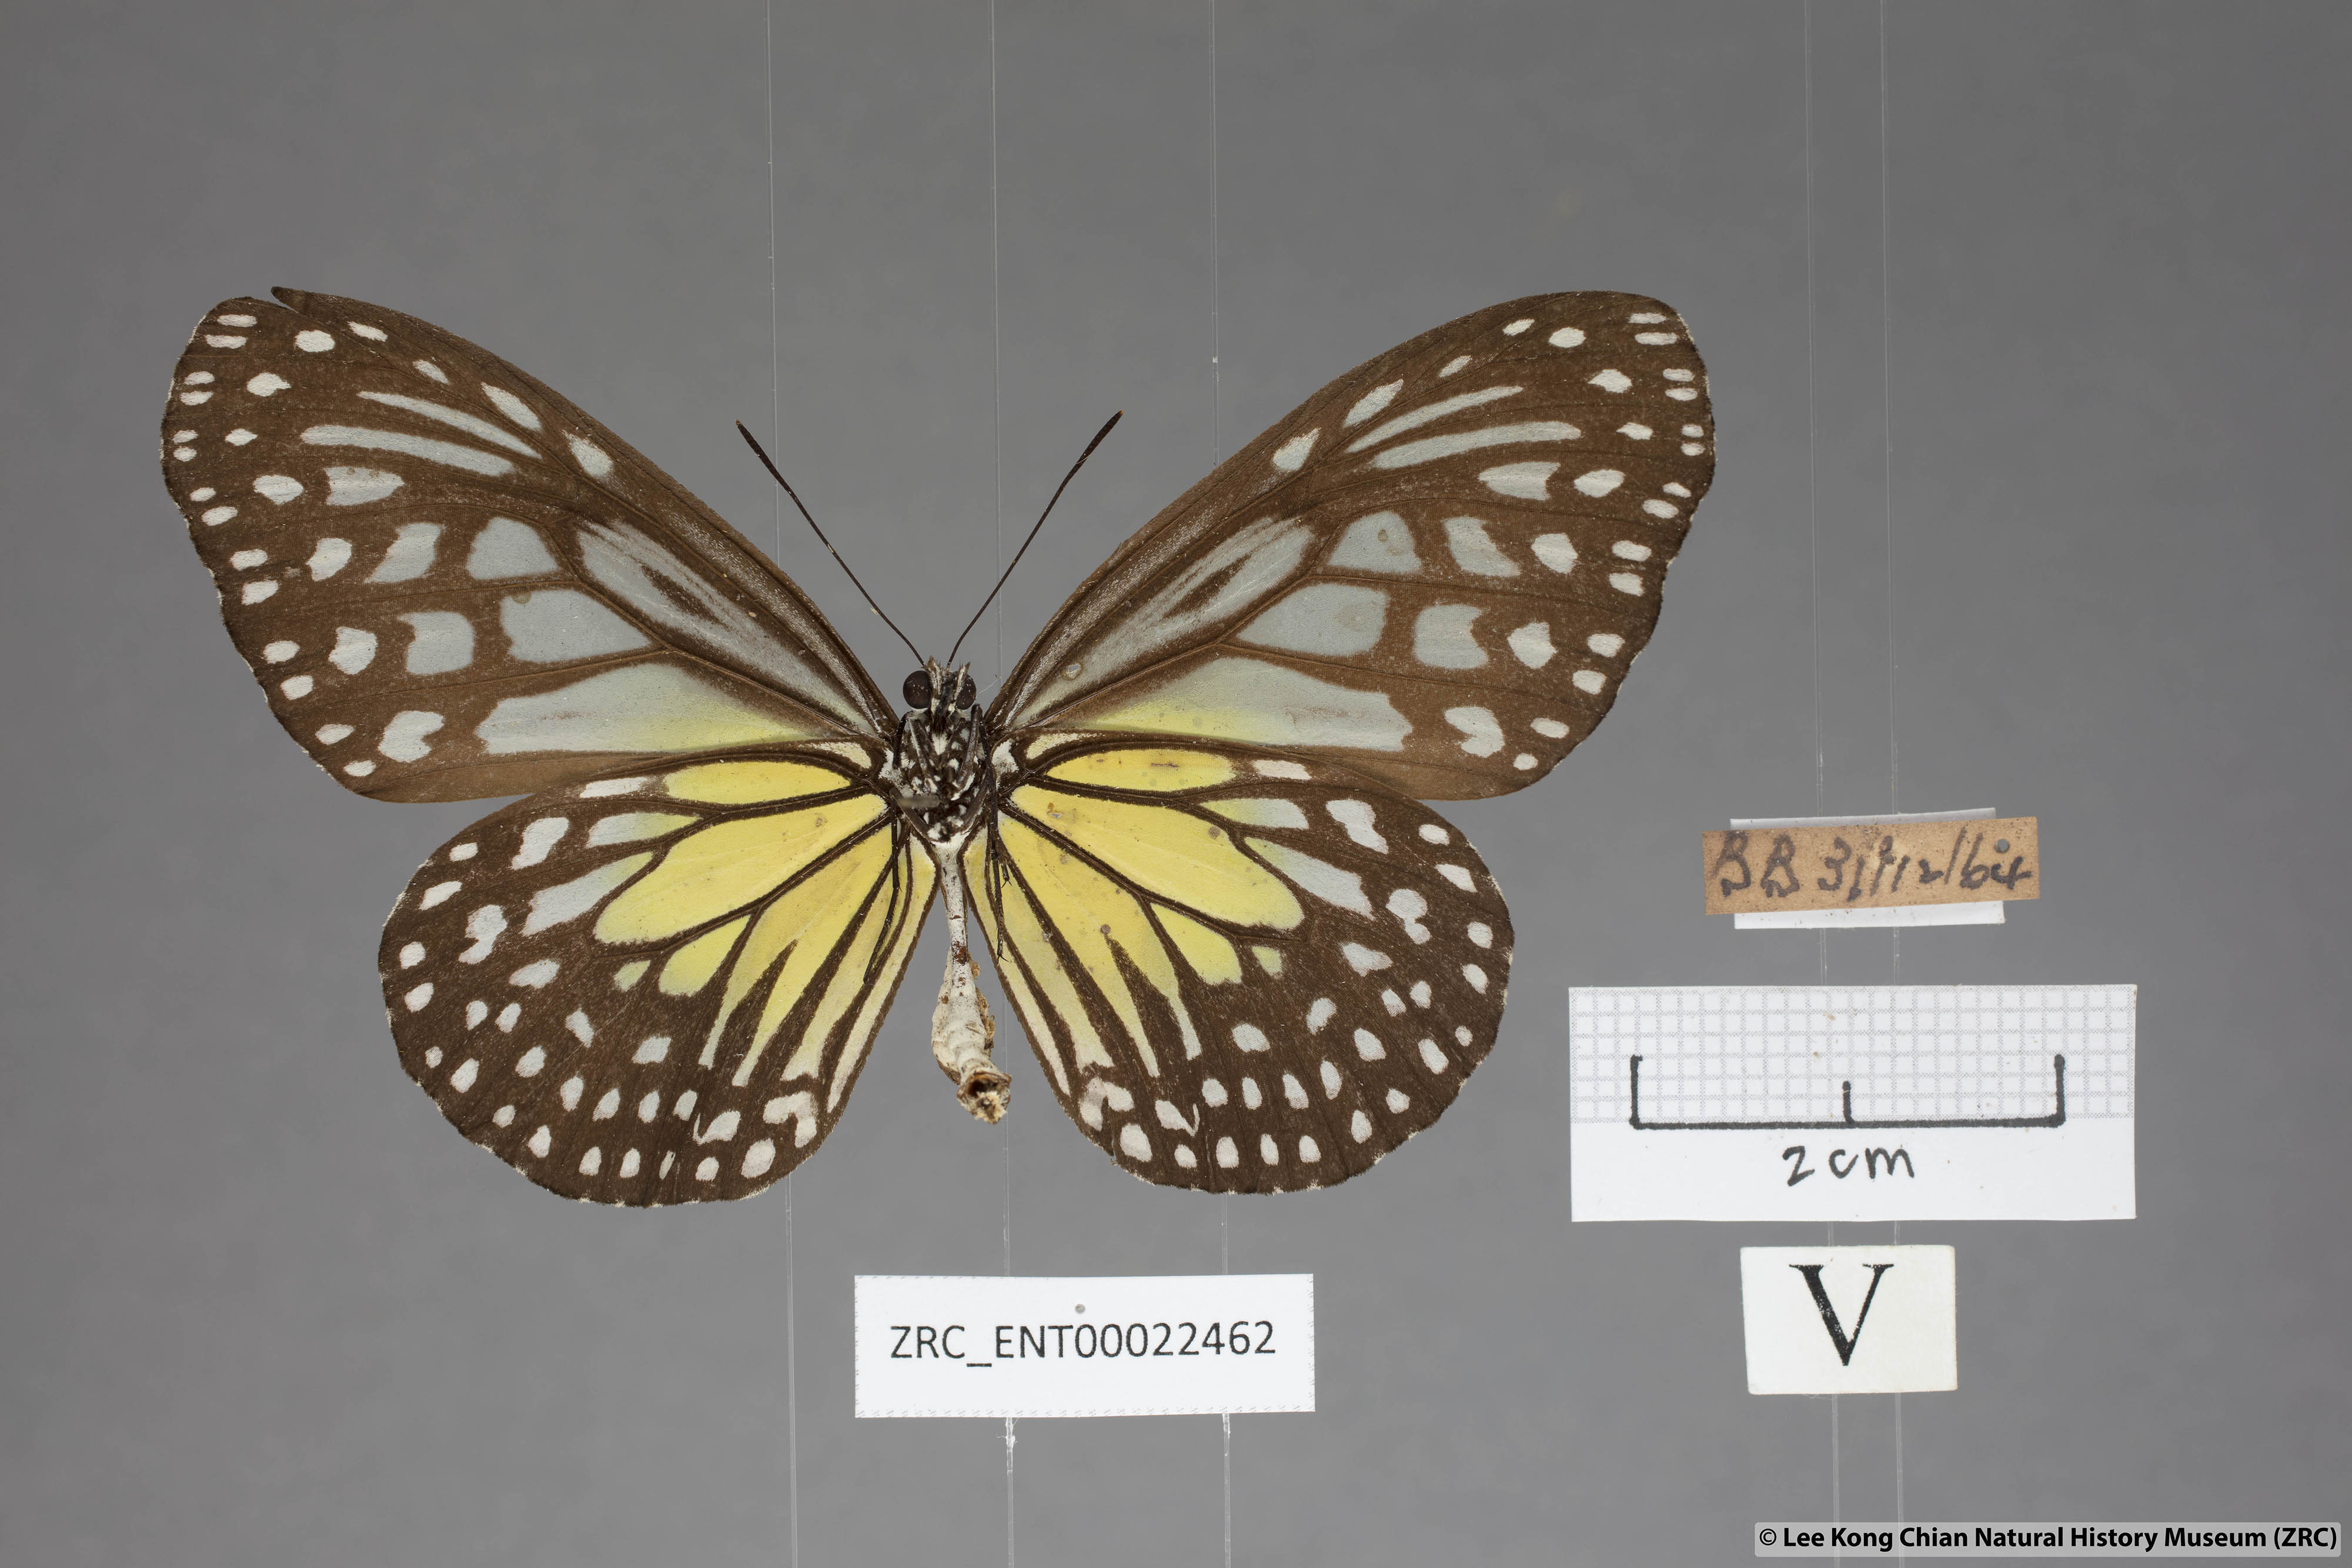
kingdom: Animalia
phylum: Arthropoda
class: Insecta
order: Lepidoptera
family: Nymphalidae
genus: Parantica
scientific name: Parantica aspasia
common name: Yellow glassy tiger
